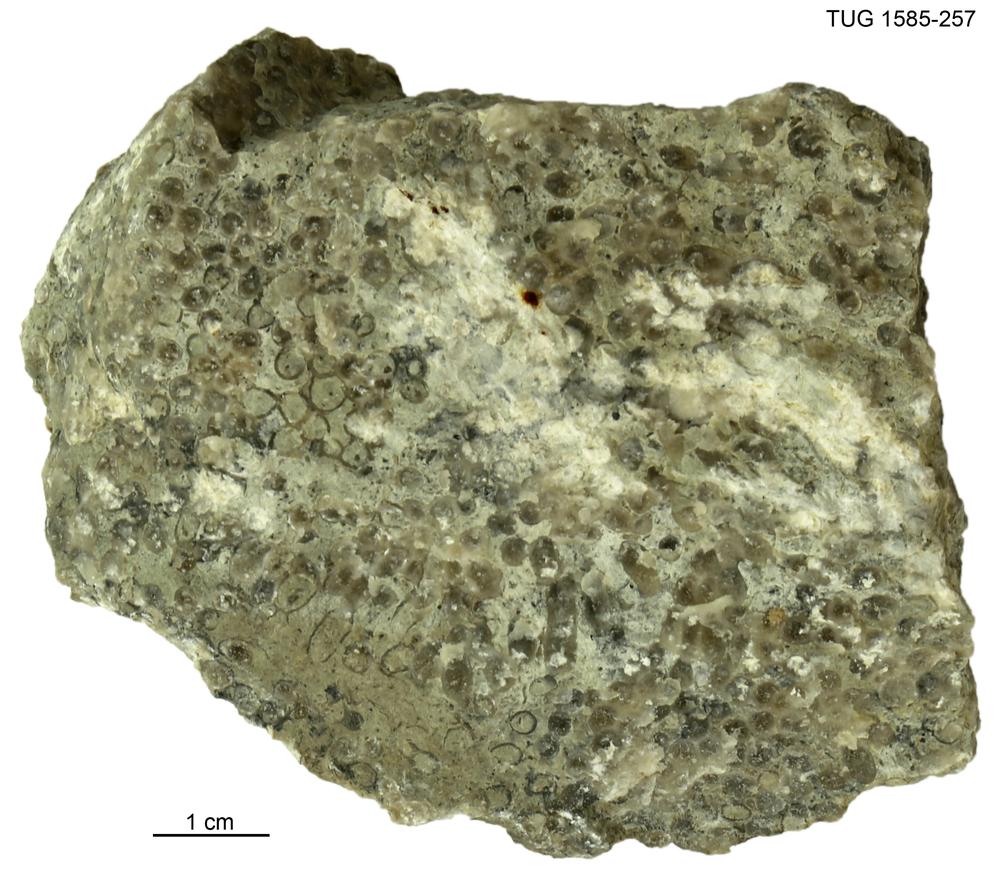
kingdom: Animalia
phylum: Cnidaria
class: Anthozoa
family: Auloporidae
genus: Eofletcheria
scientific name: Eofletcheria orvikui
